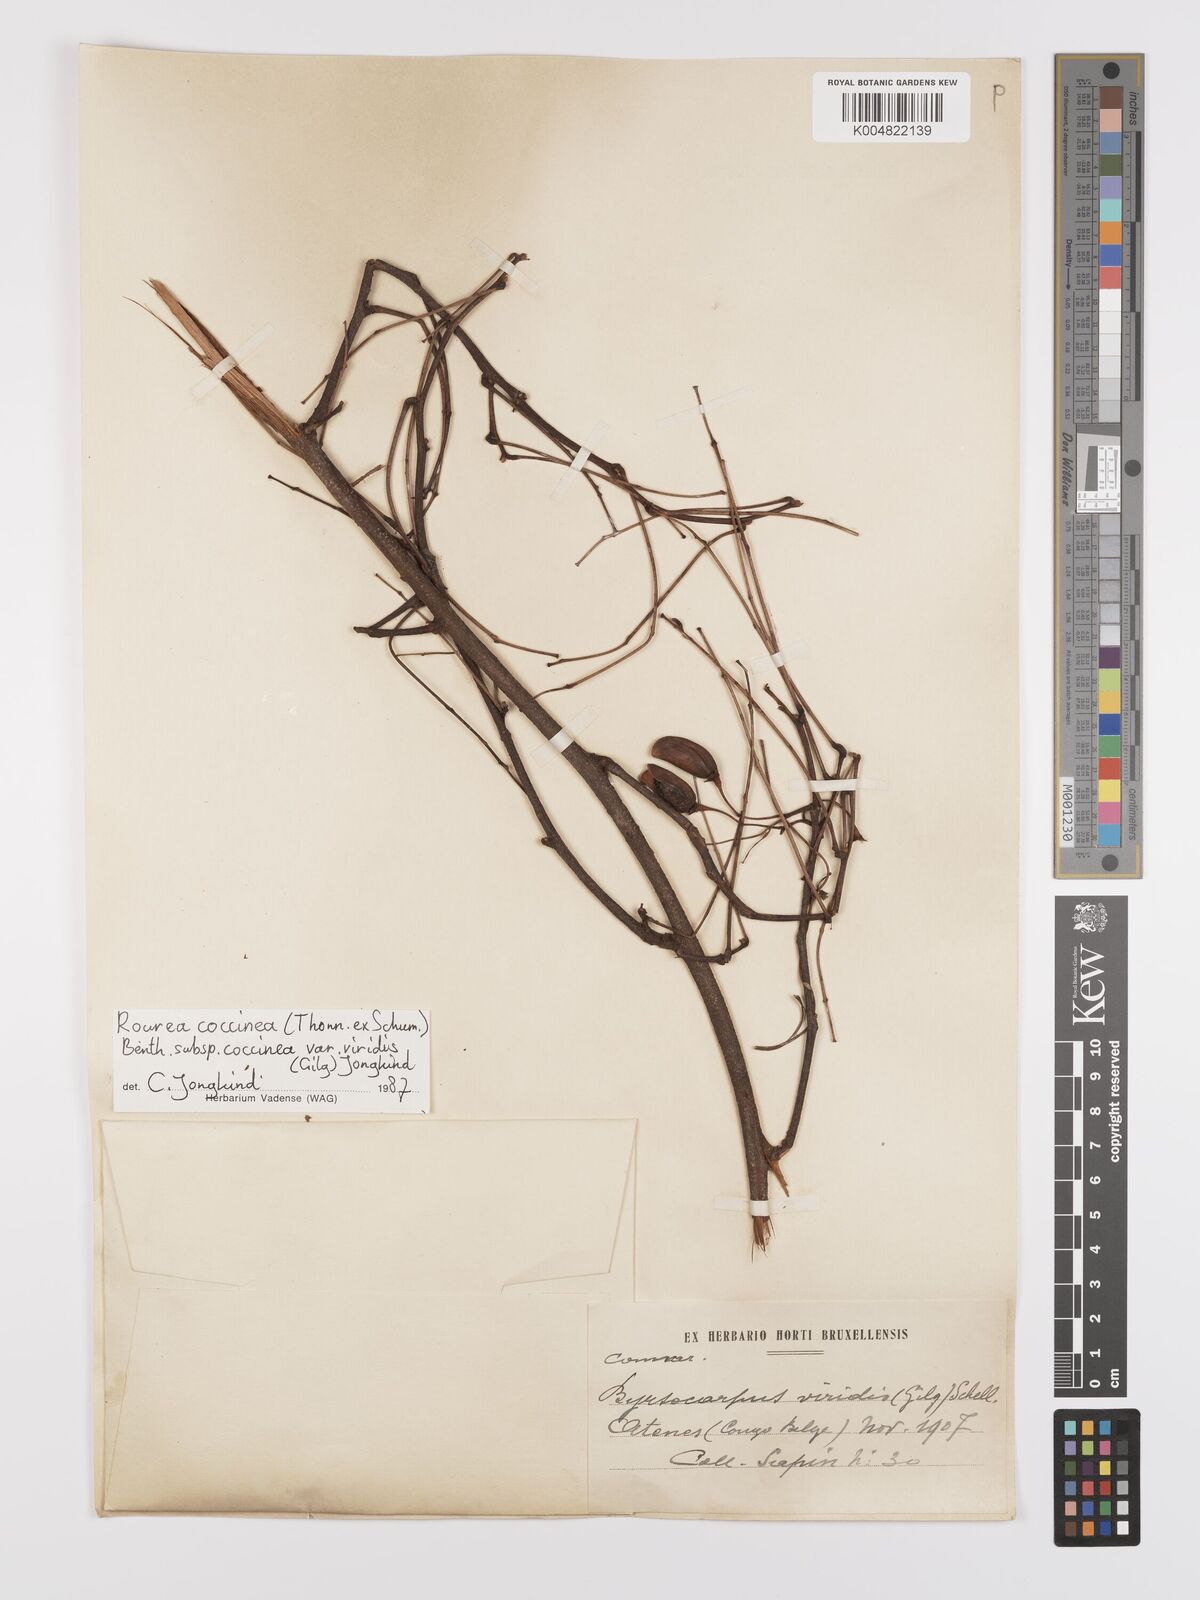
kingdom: Plantae
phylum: Tracheophyta
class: Magnoliopsida
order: Oxalidales
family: Connaraceae
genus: Rourea
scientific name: Rourea coccinea
